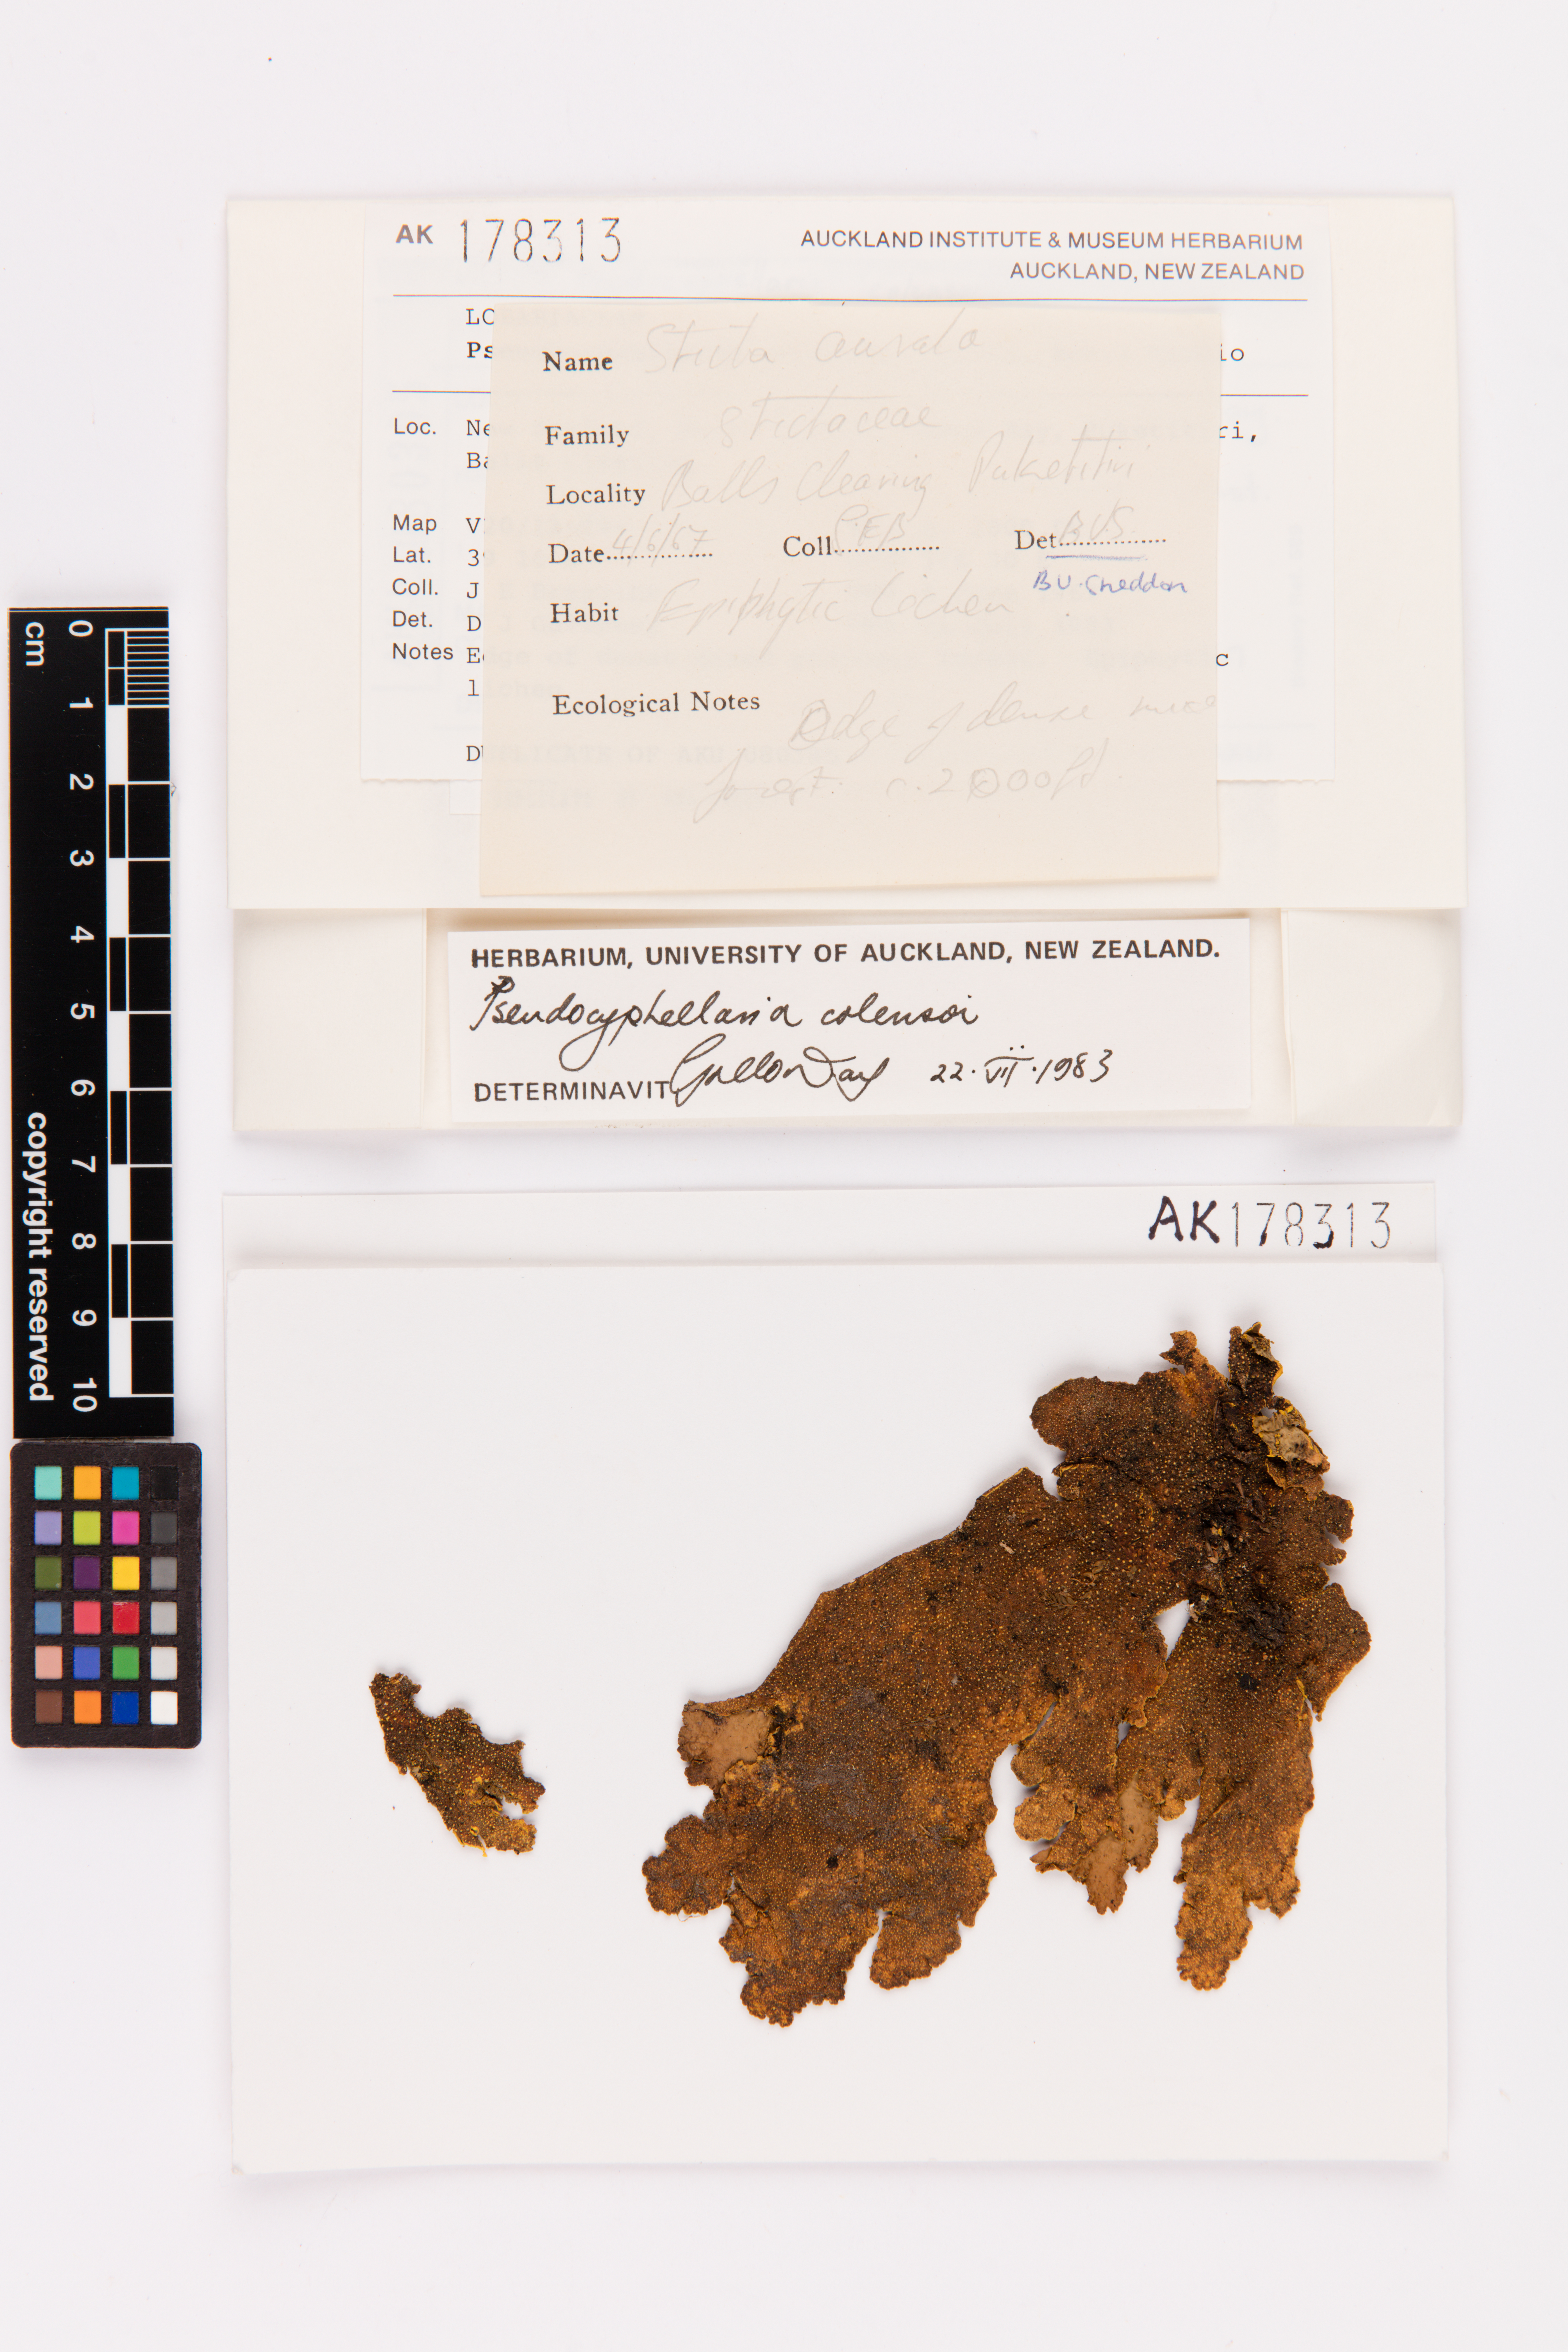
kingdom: Fungi
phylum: Ascomycota
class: Lecanoromycetes
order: Peltigerales
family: Lobariaceae
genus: Yarrumia
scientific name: Yarrumia colensoi
